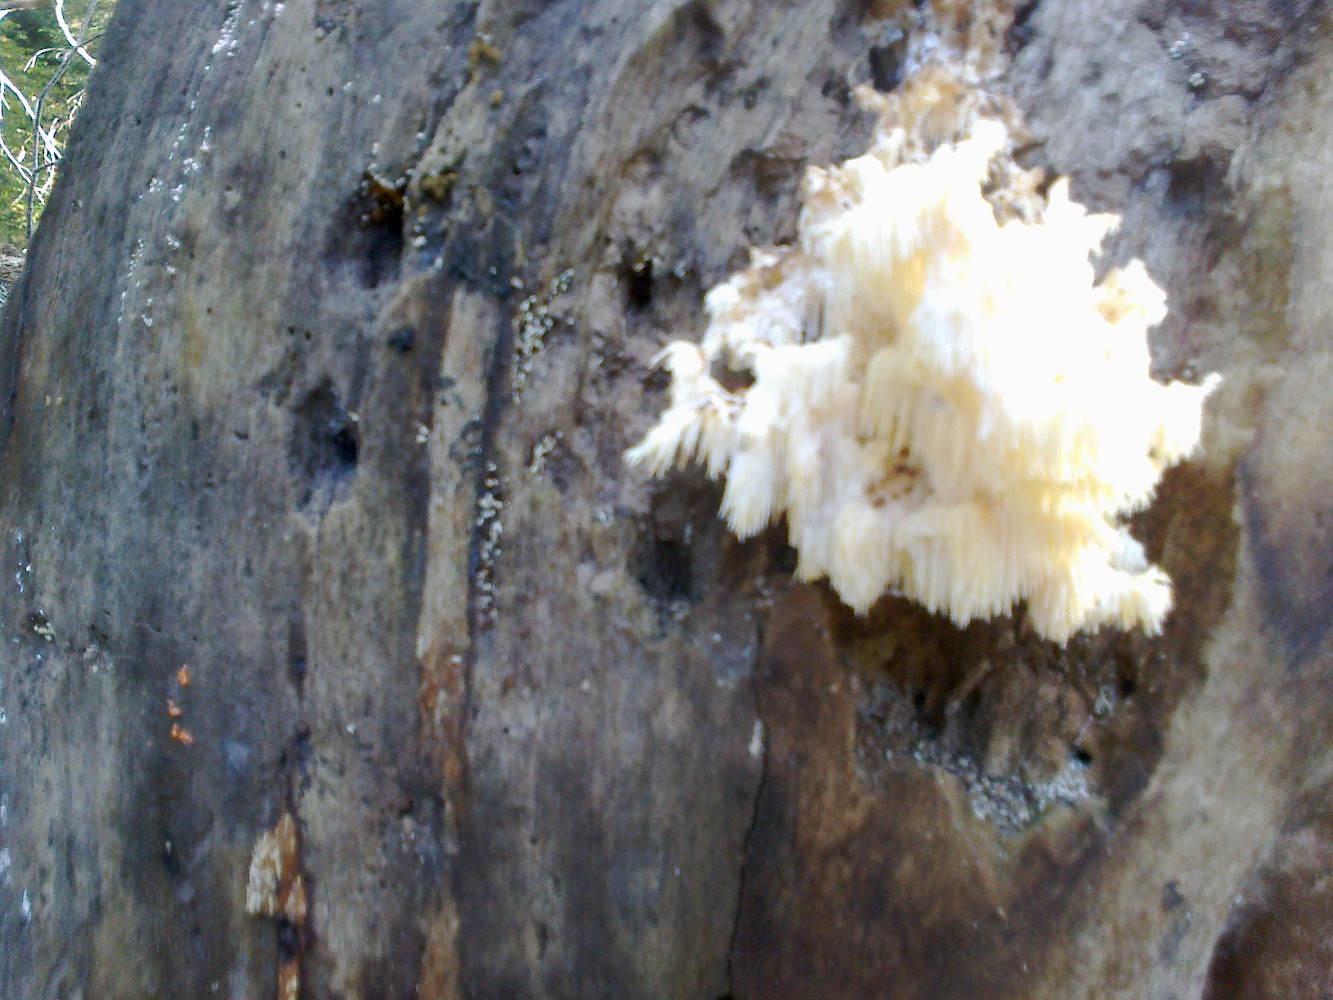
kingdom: Fungi
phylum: Basidiomycota
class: Agaricomycetes
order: Russulales
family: Hericiaceae
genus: Hericium
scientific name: Hericium coralloides
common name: koralpigsvamp
